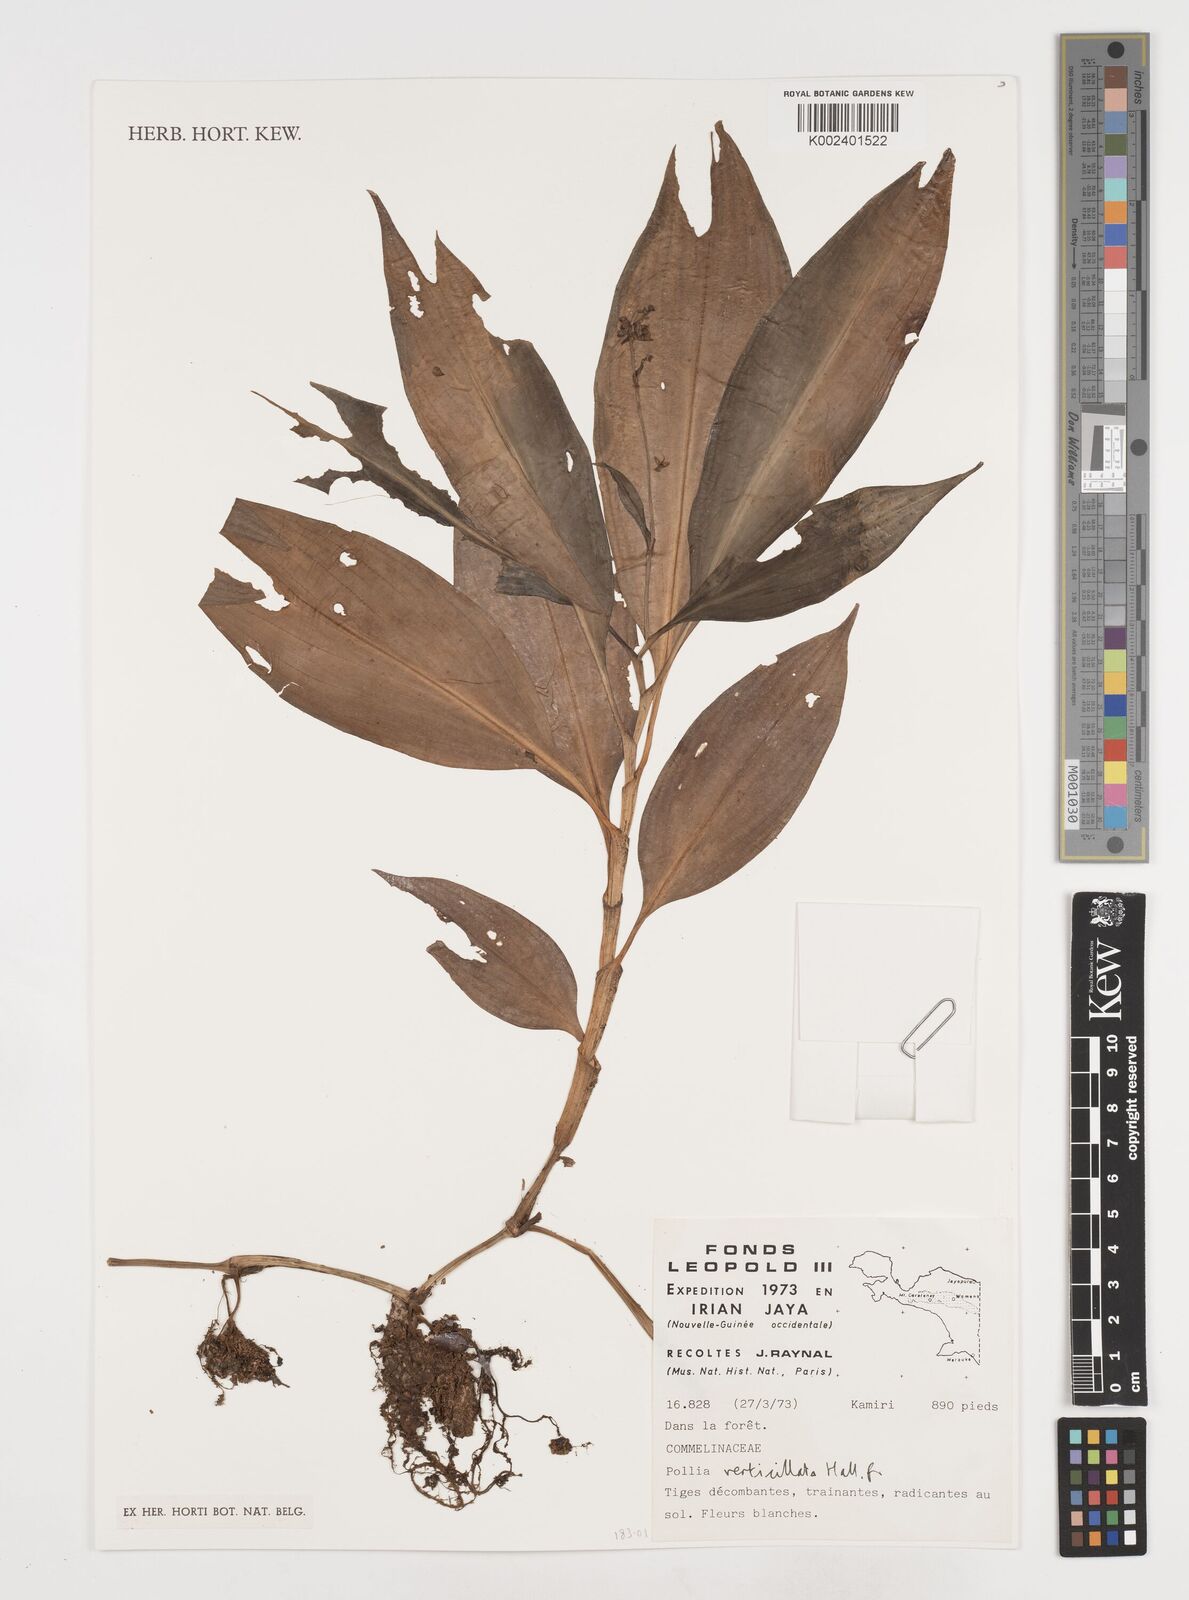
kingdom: Plantae
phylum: Tracheophyta
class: Liliopsida
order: Commelinales
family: Commelinaceae
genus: Pollia
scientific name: Pollia verticillata
